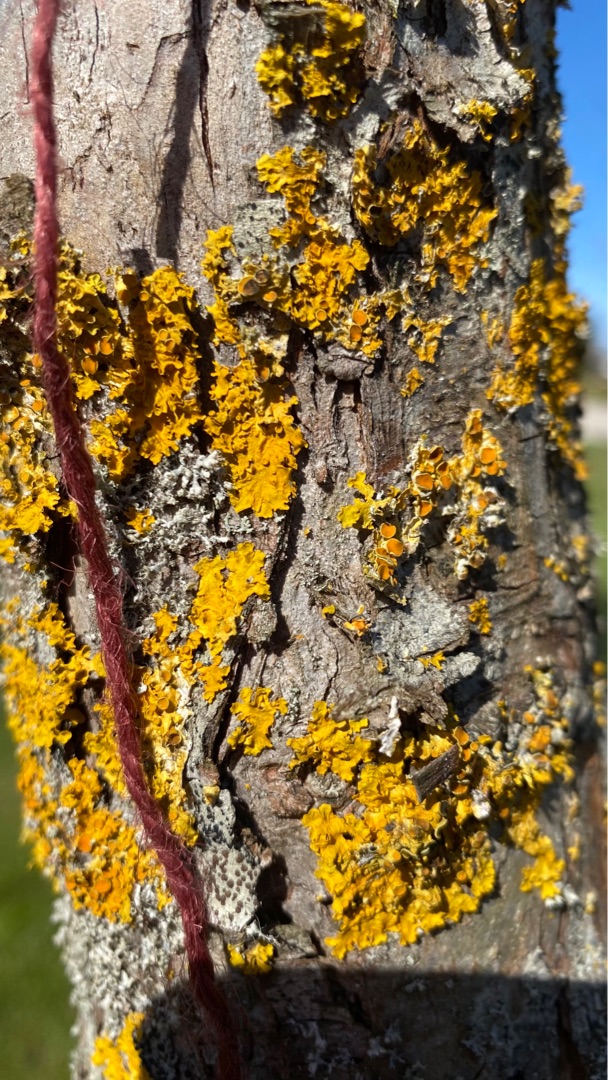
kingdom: Fungi
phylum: Ascomycota
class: Lecanoromycetes
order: Teloschistales
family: Teloschistaceae
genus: Xanthoria
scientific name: Xanthoria parietina
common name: Almindelig væggelav
